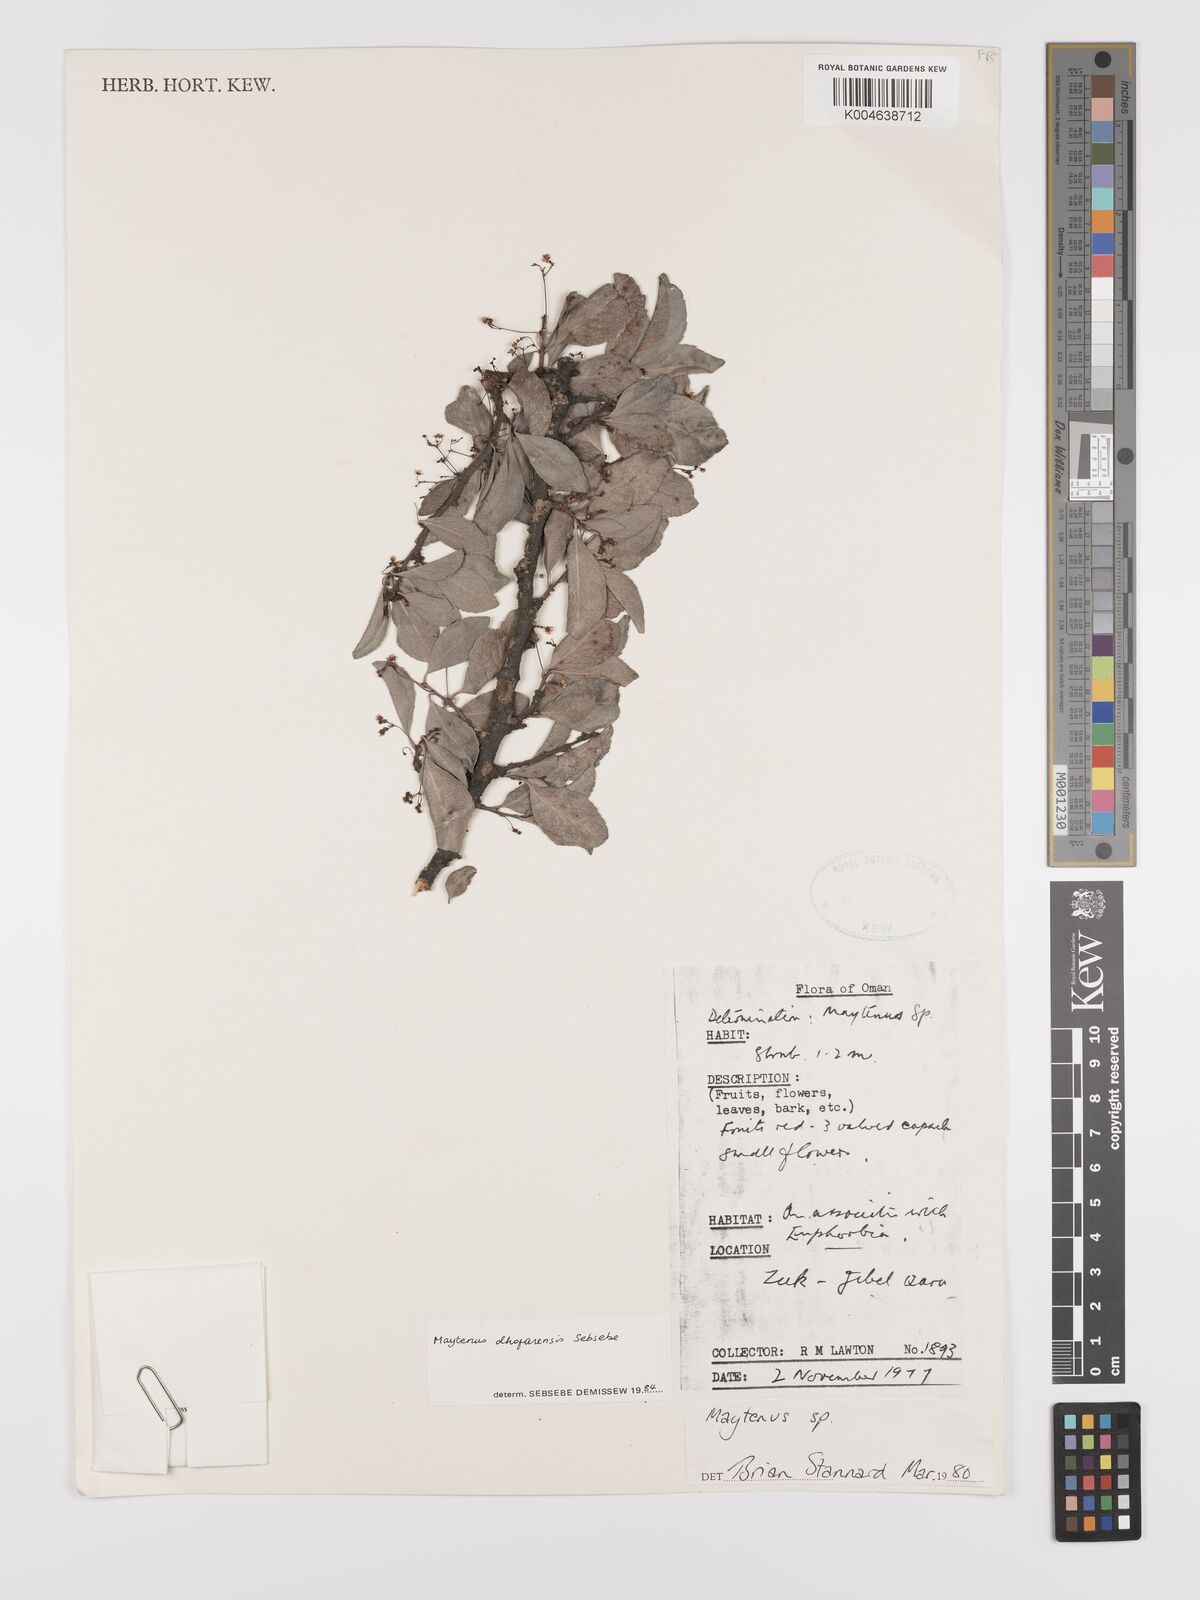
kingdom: Plantae
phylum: Tracheophyta
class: Magnoliopsida
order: Celastrales
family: Celastraceae
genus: Gymnosporia
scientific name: Gymnosporia dhofarensis
